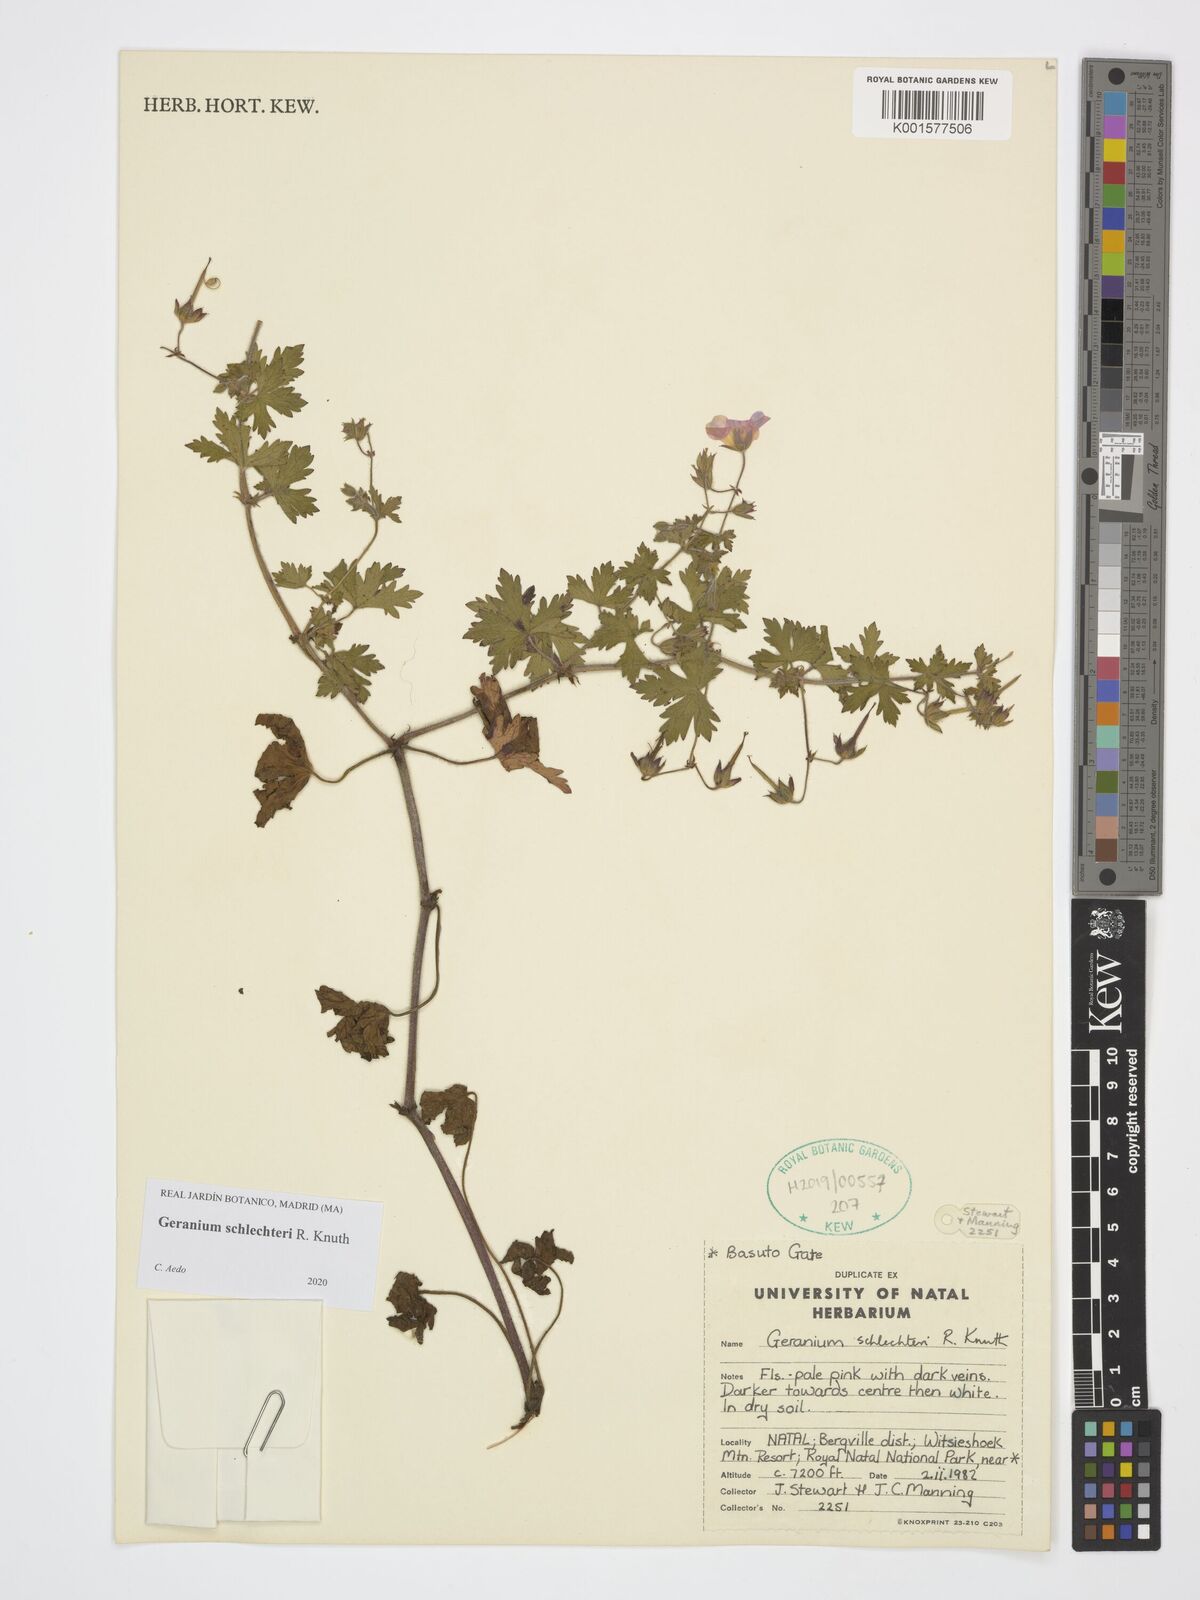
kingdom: Plantae
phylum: Tracheophyta
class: Magnoliopsida
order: Geraniales
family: Geraniaceae
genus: Geranium
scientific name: Geranium schlechteri
